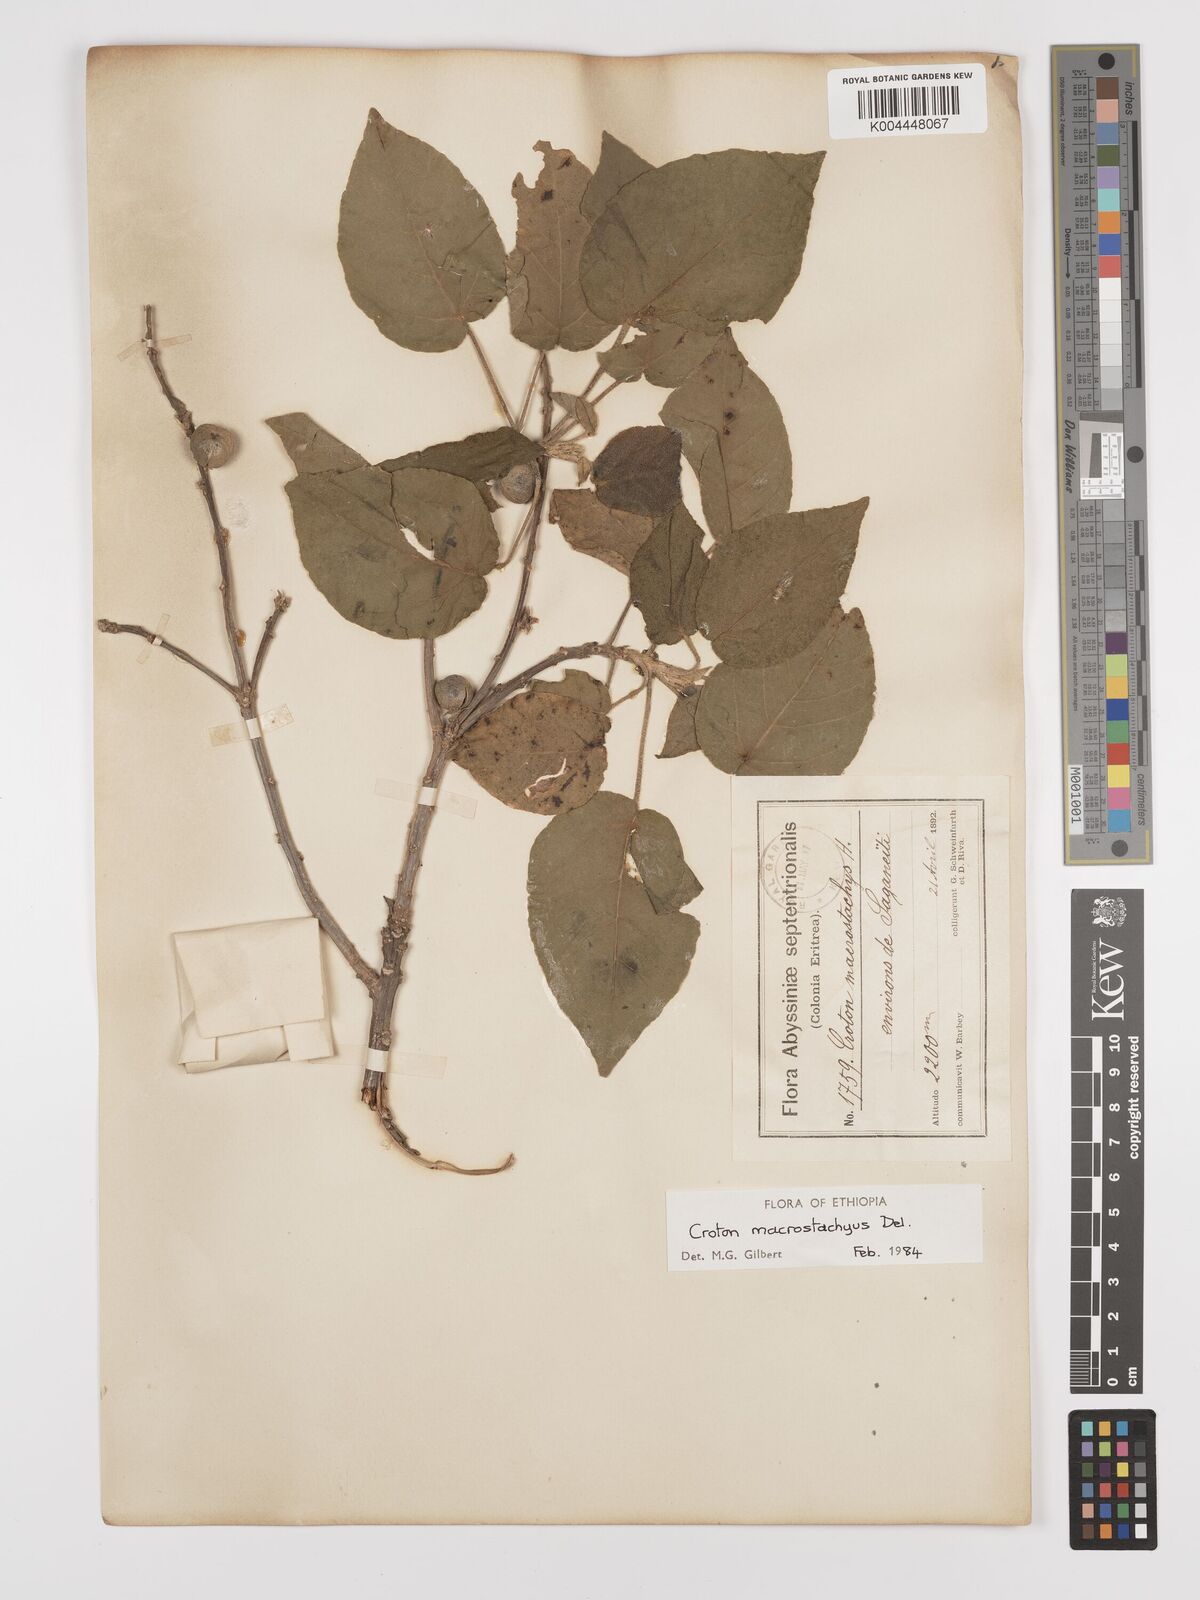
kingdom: Plantae
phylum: Tracheophyta
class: Magnoliopsida
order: Malpighiales
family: Euphorbiaceae
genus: Croton
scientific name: Croton macrostachyus
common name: Mutundu
